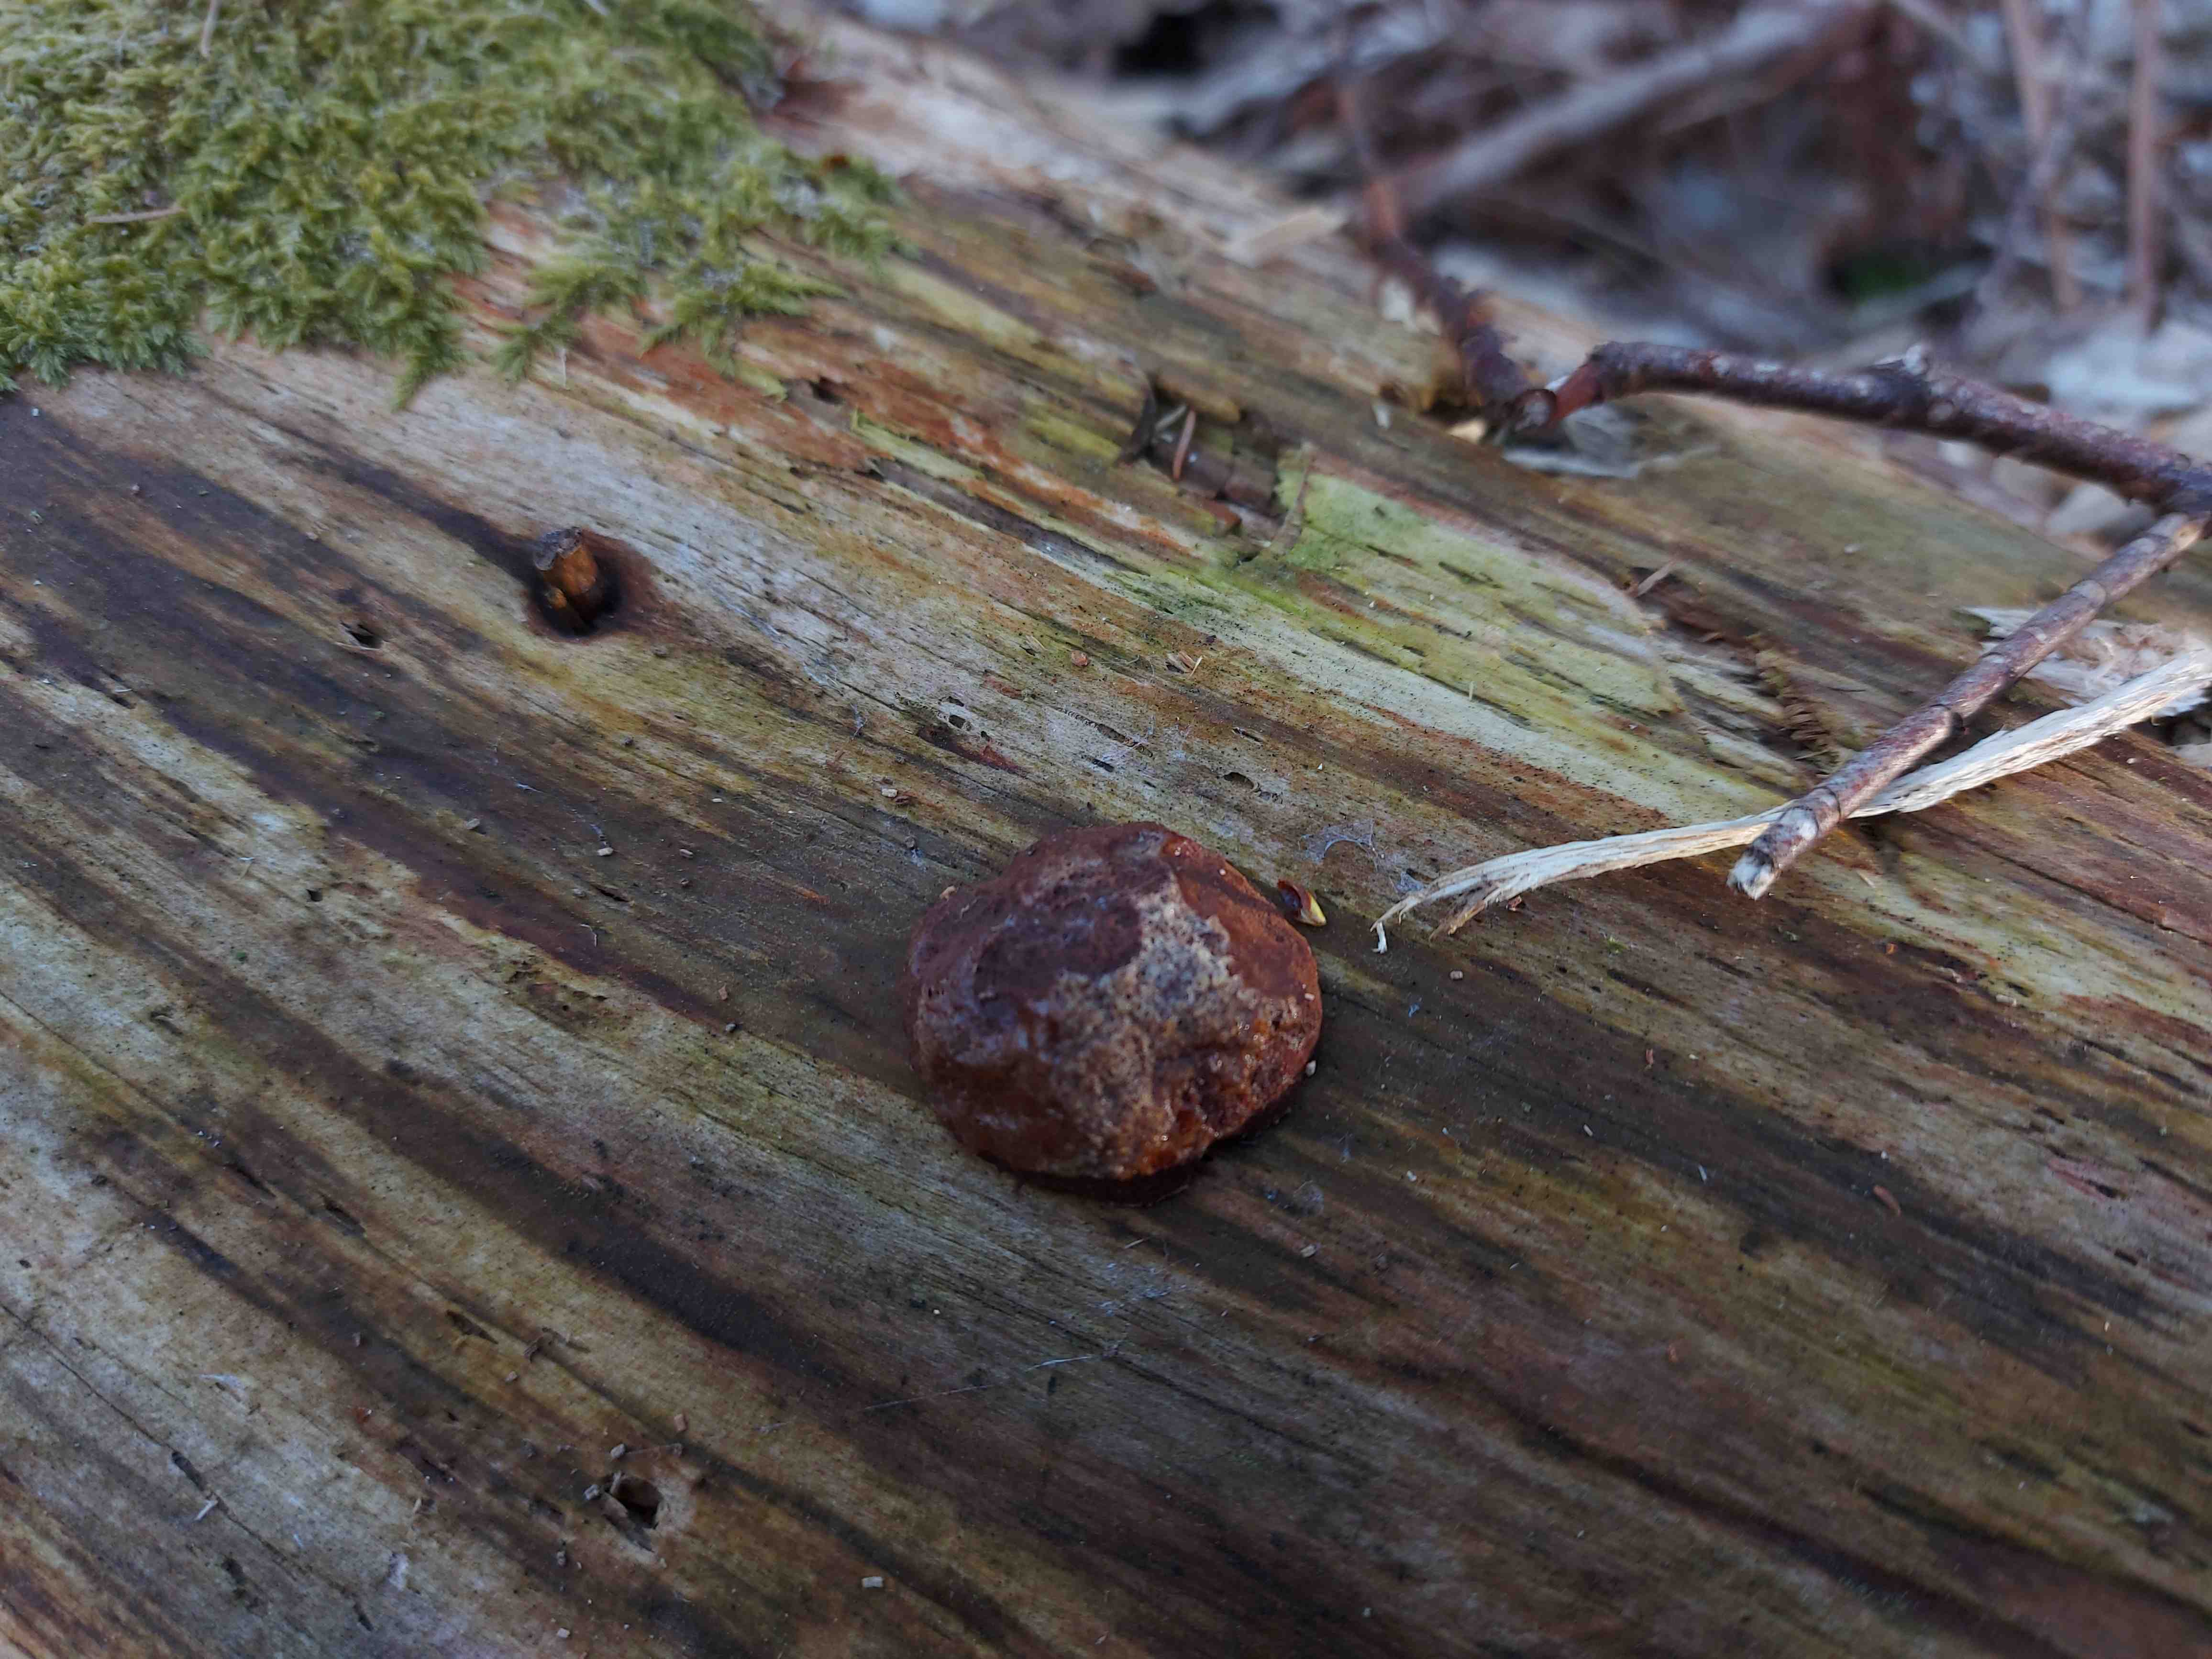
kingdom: Protozoa
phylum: Mycetozoa
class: Myxomycetes
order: Cribrariales
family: Tubiferaceae
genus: Reticularia
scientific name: Reticularia
